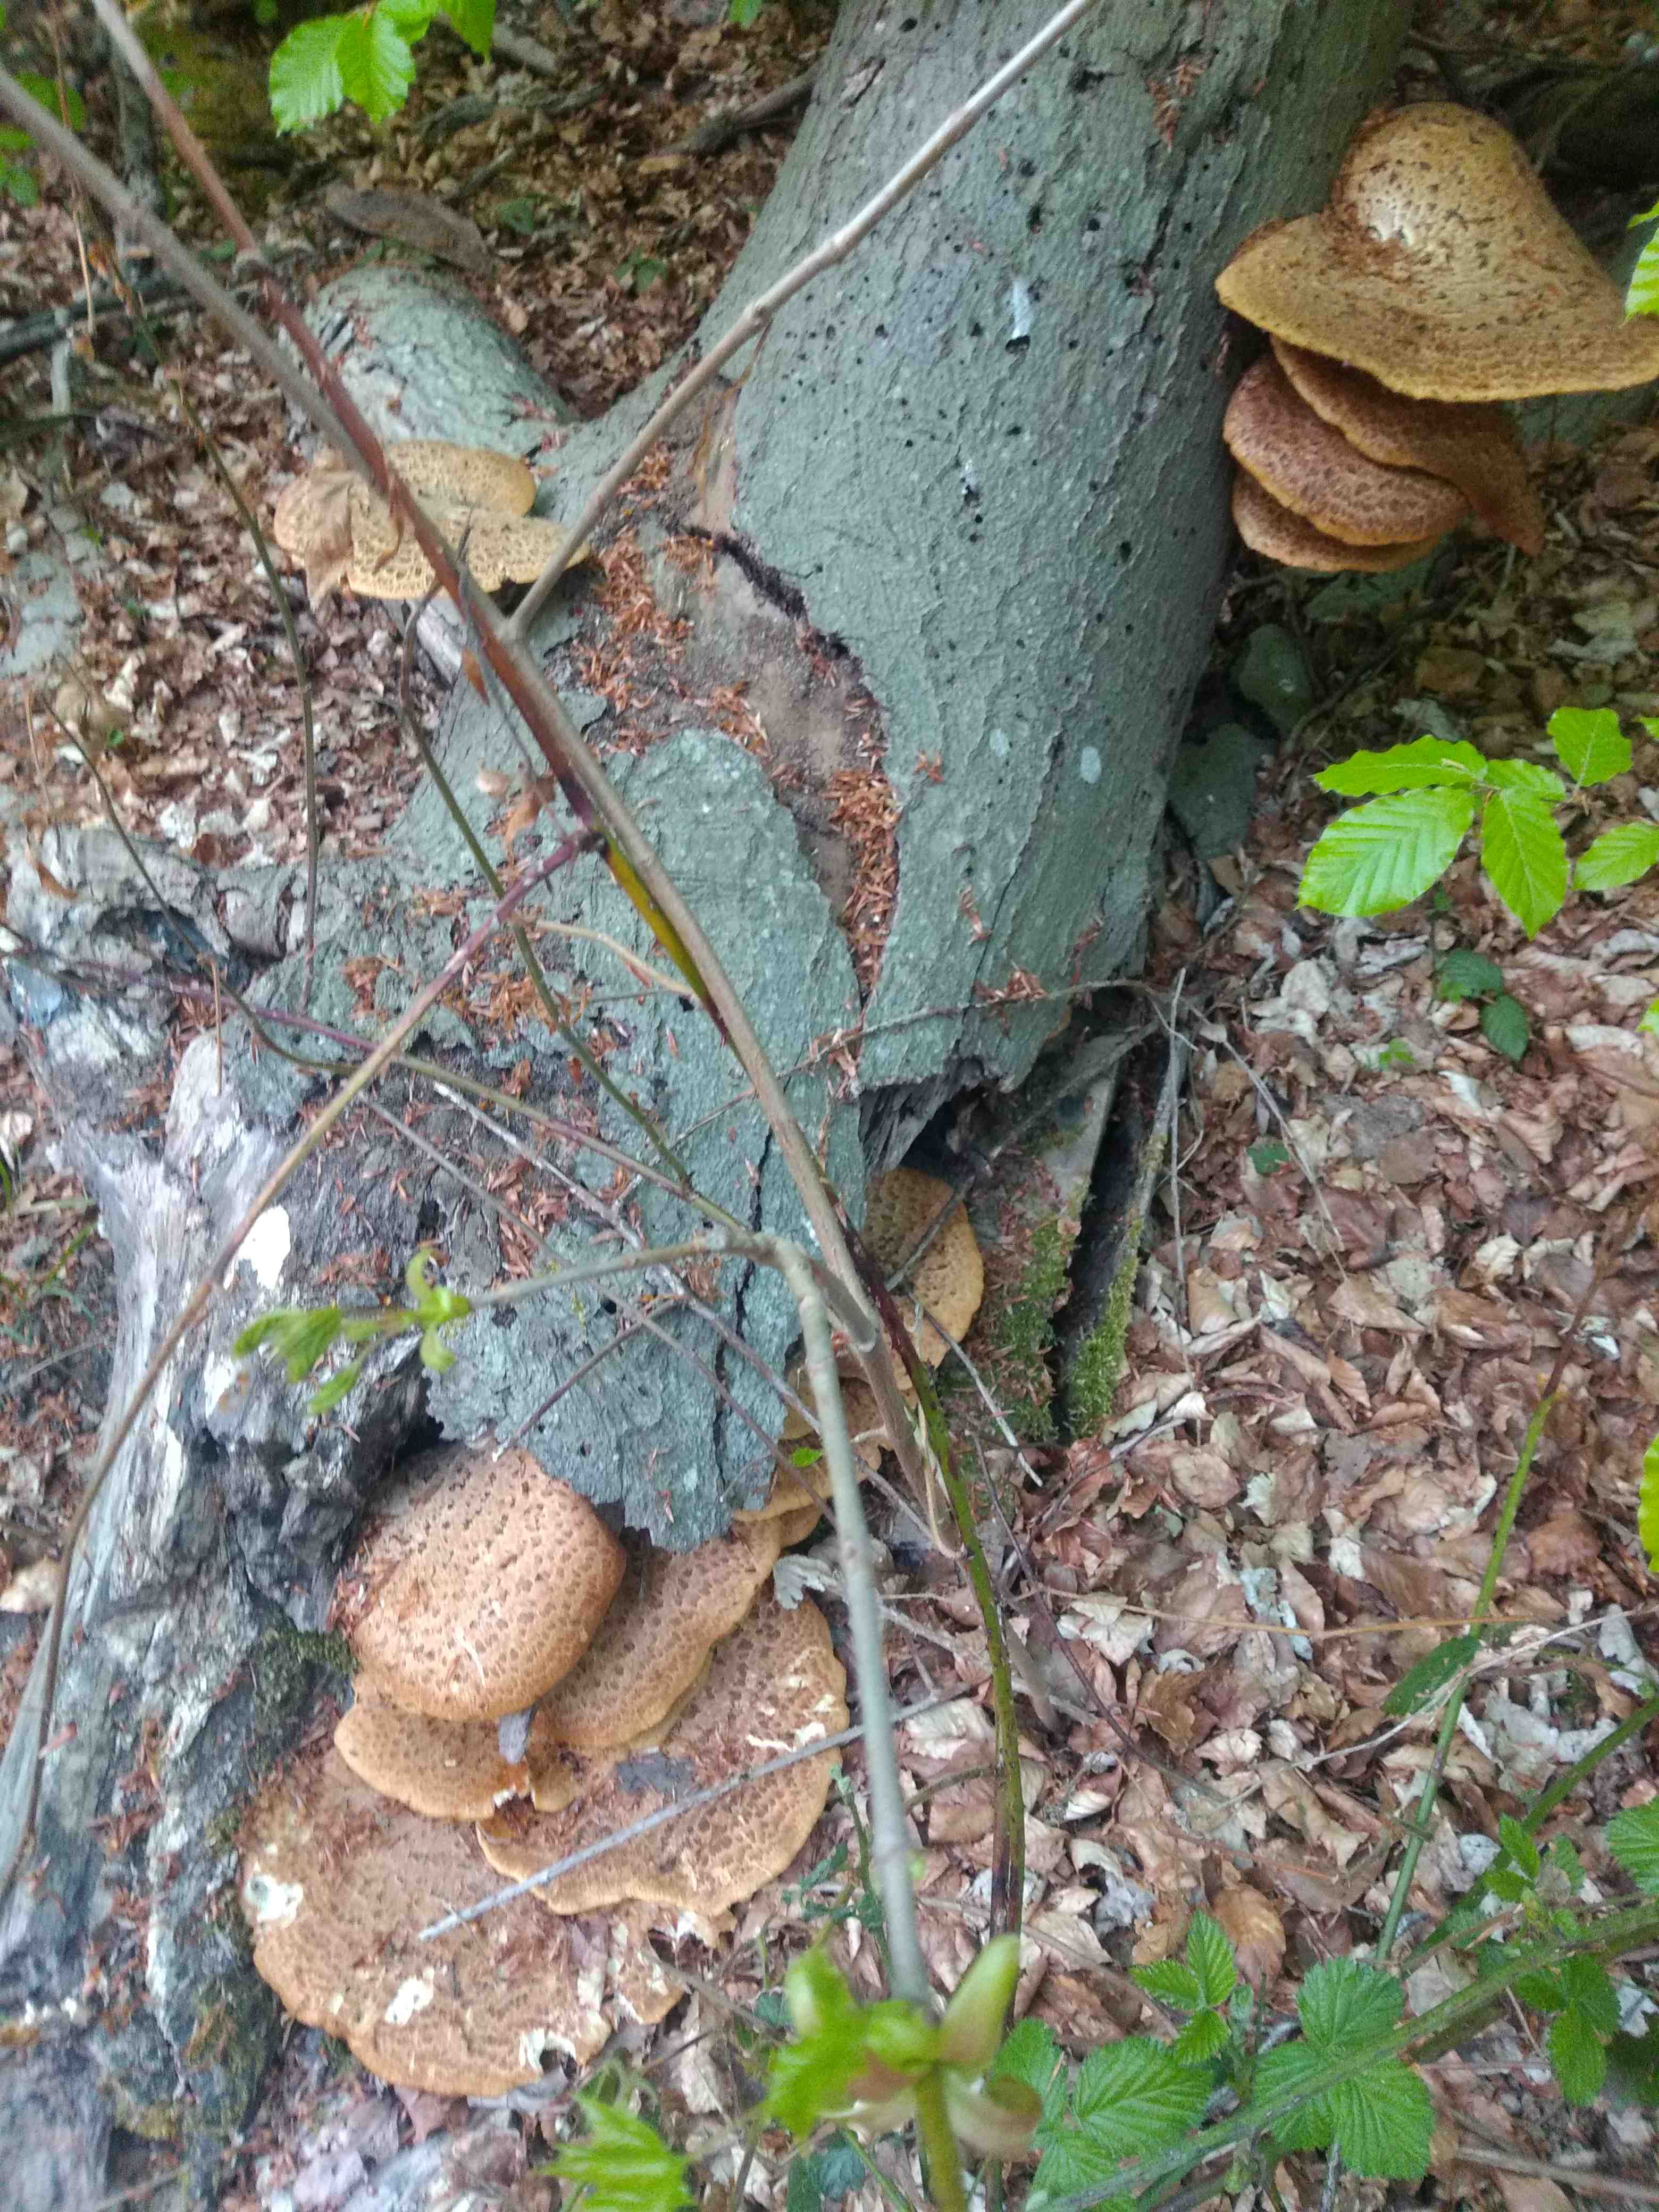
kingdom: Fungi
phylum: Basidiomycota
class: Agaricomycetes
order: Polyporales
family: Polyporaceae
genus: Cerioporus
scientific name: Cerioporus squamosus
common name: skællet stilkporesvamp
